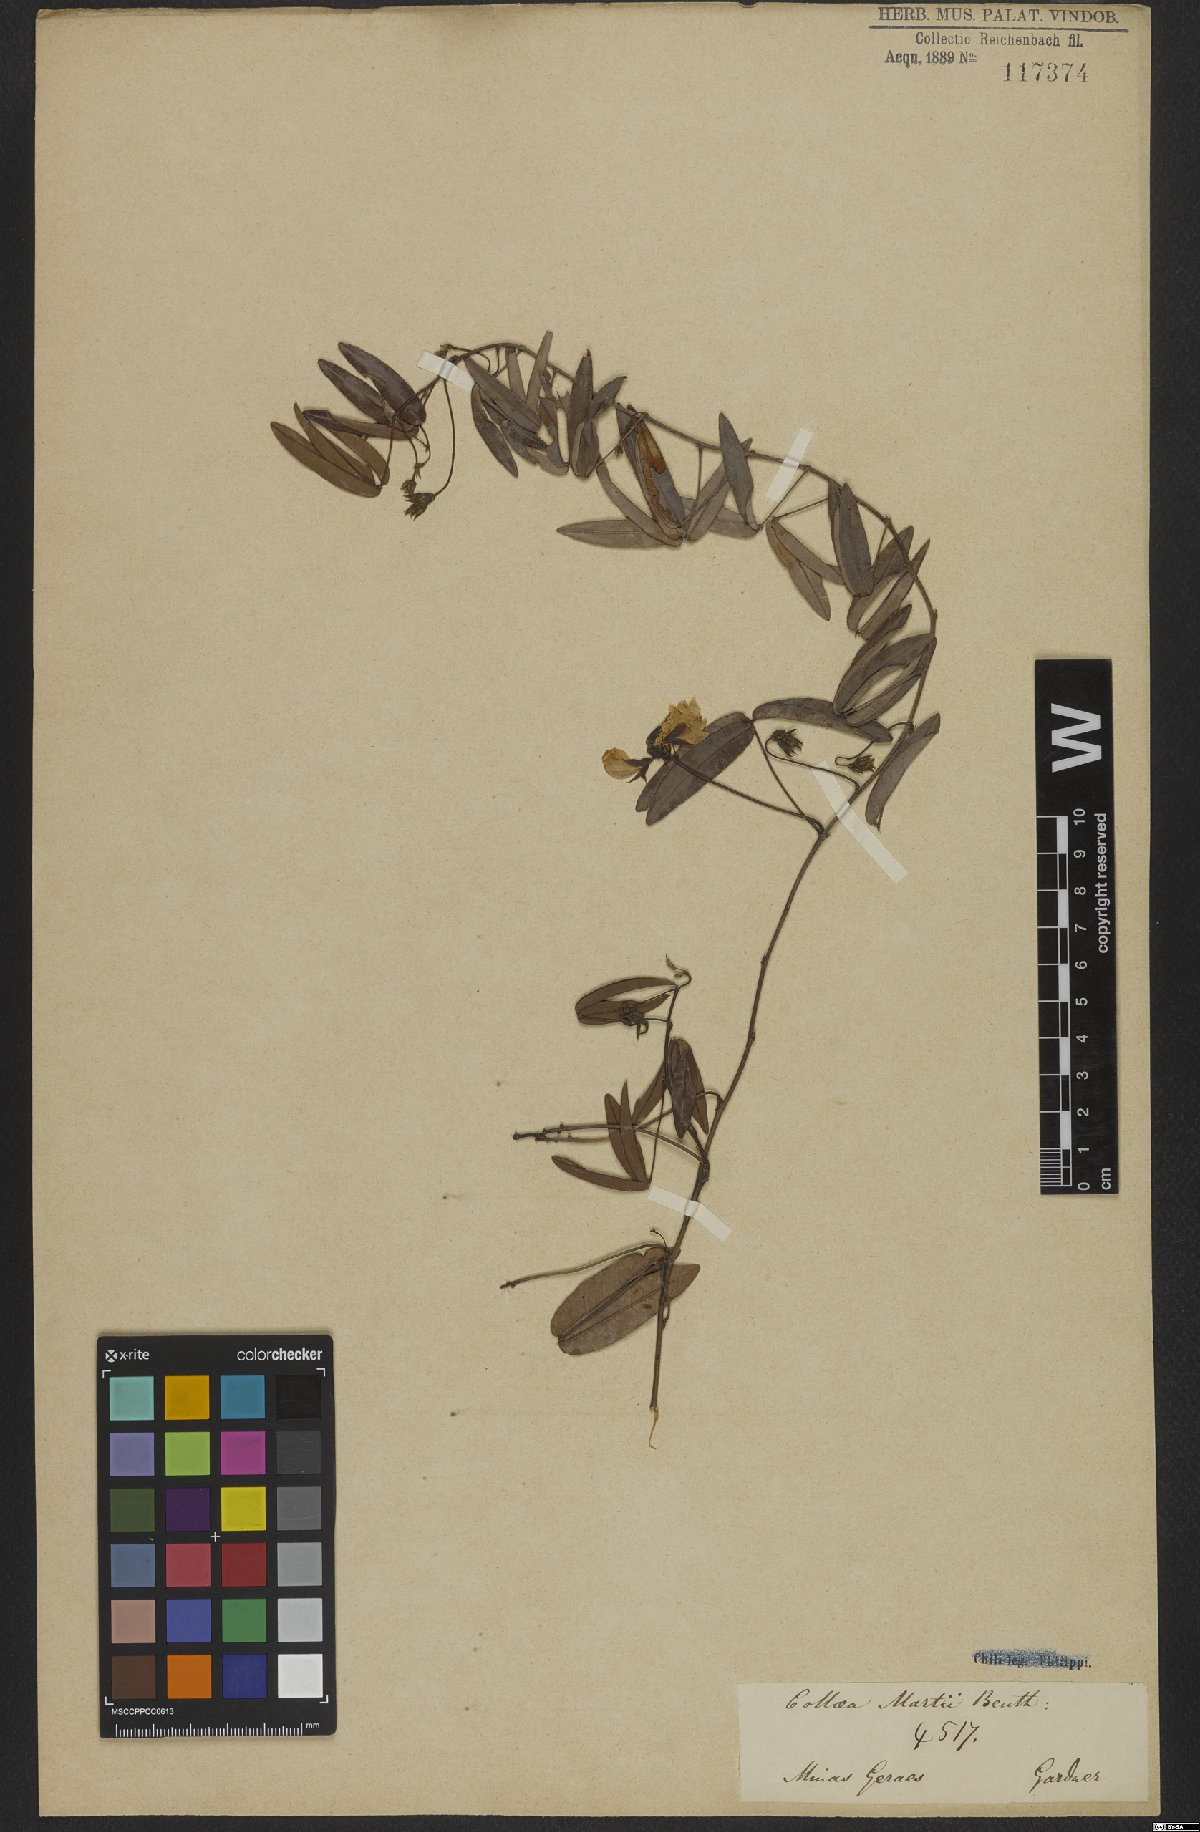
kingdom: Plantae
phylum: Tracheophyta
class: Magnoliopsida
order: Fabales
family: Fabaceae
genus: Betencourtia
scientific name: Betencourtia martii
